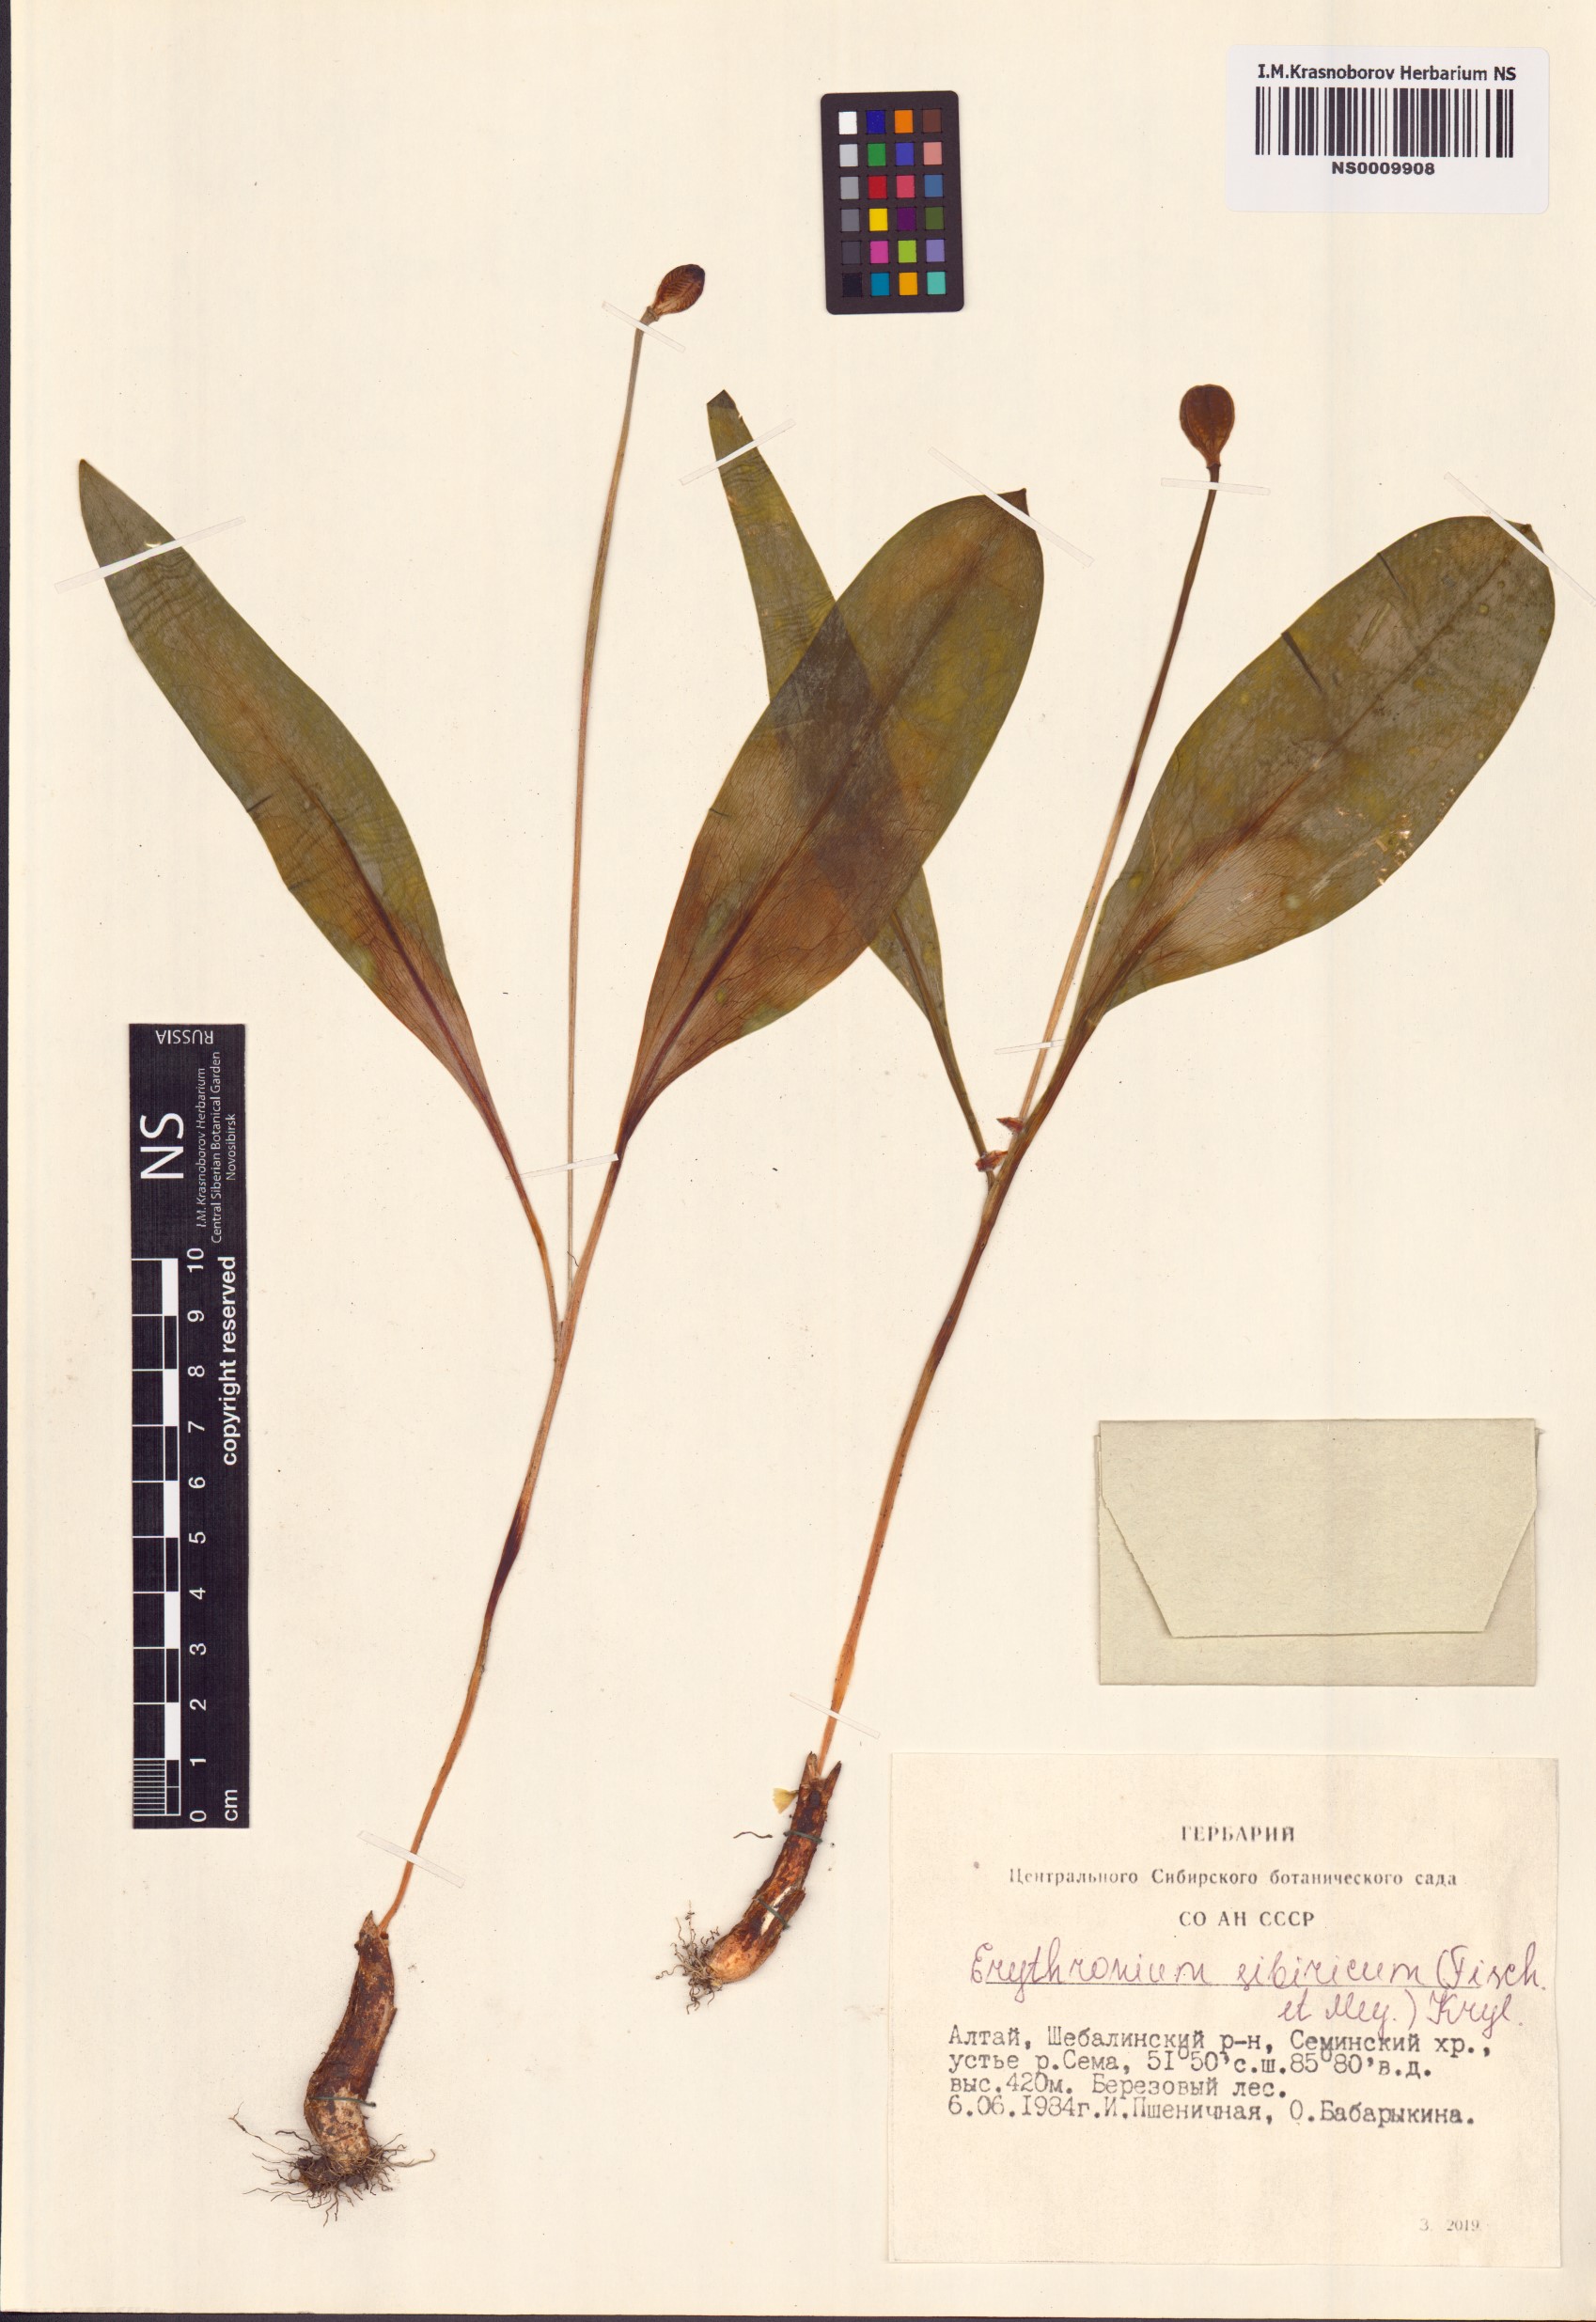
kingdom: Plantae
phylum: Tracheophyta
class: Liliopsida
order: Liliales
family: Liliaceae
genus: Erythronium
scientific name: Erythronium sibiricum
